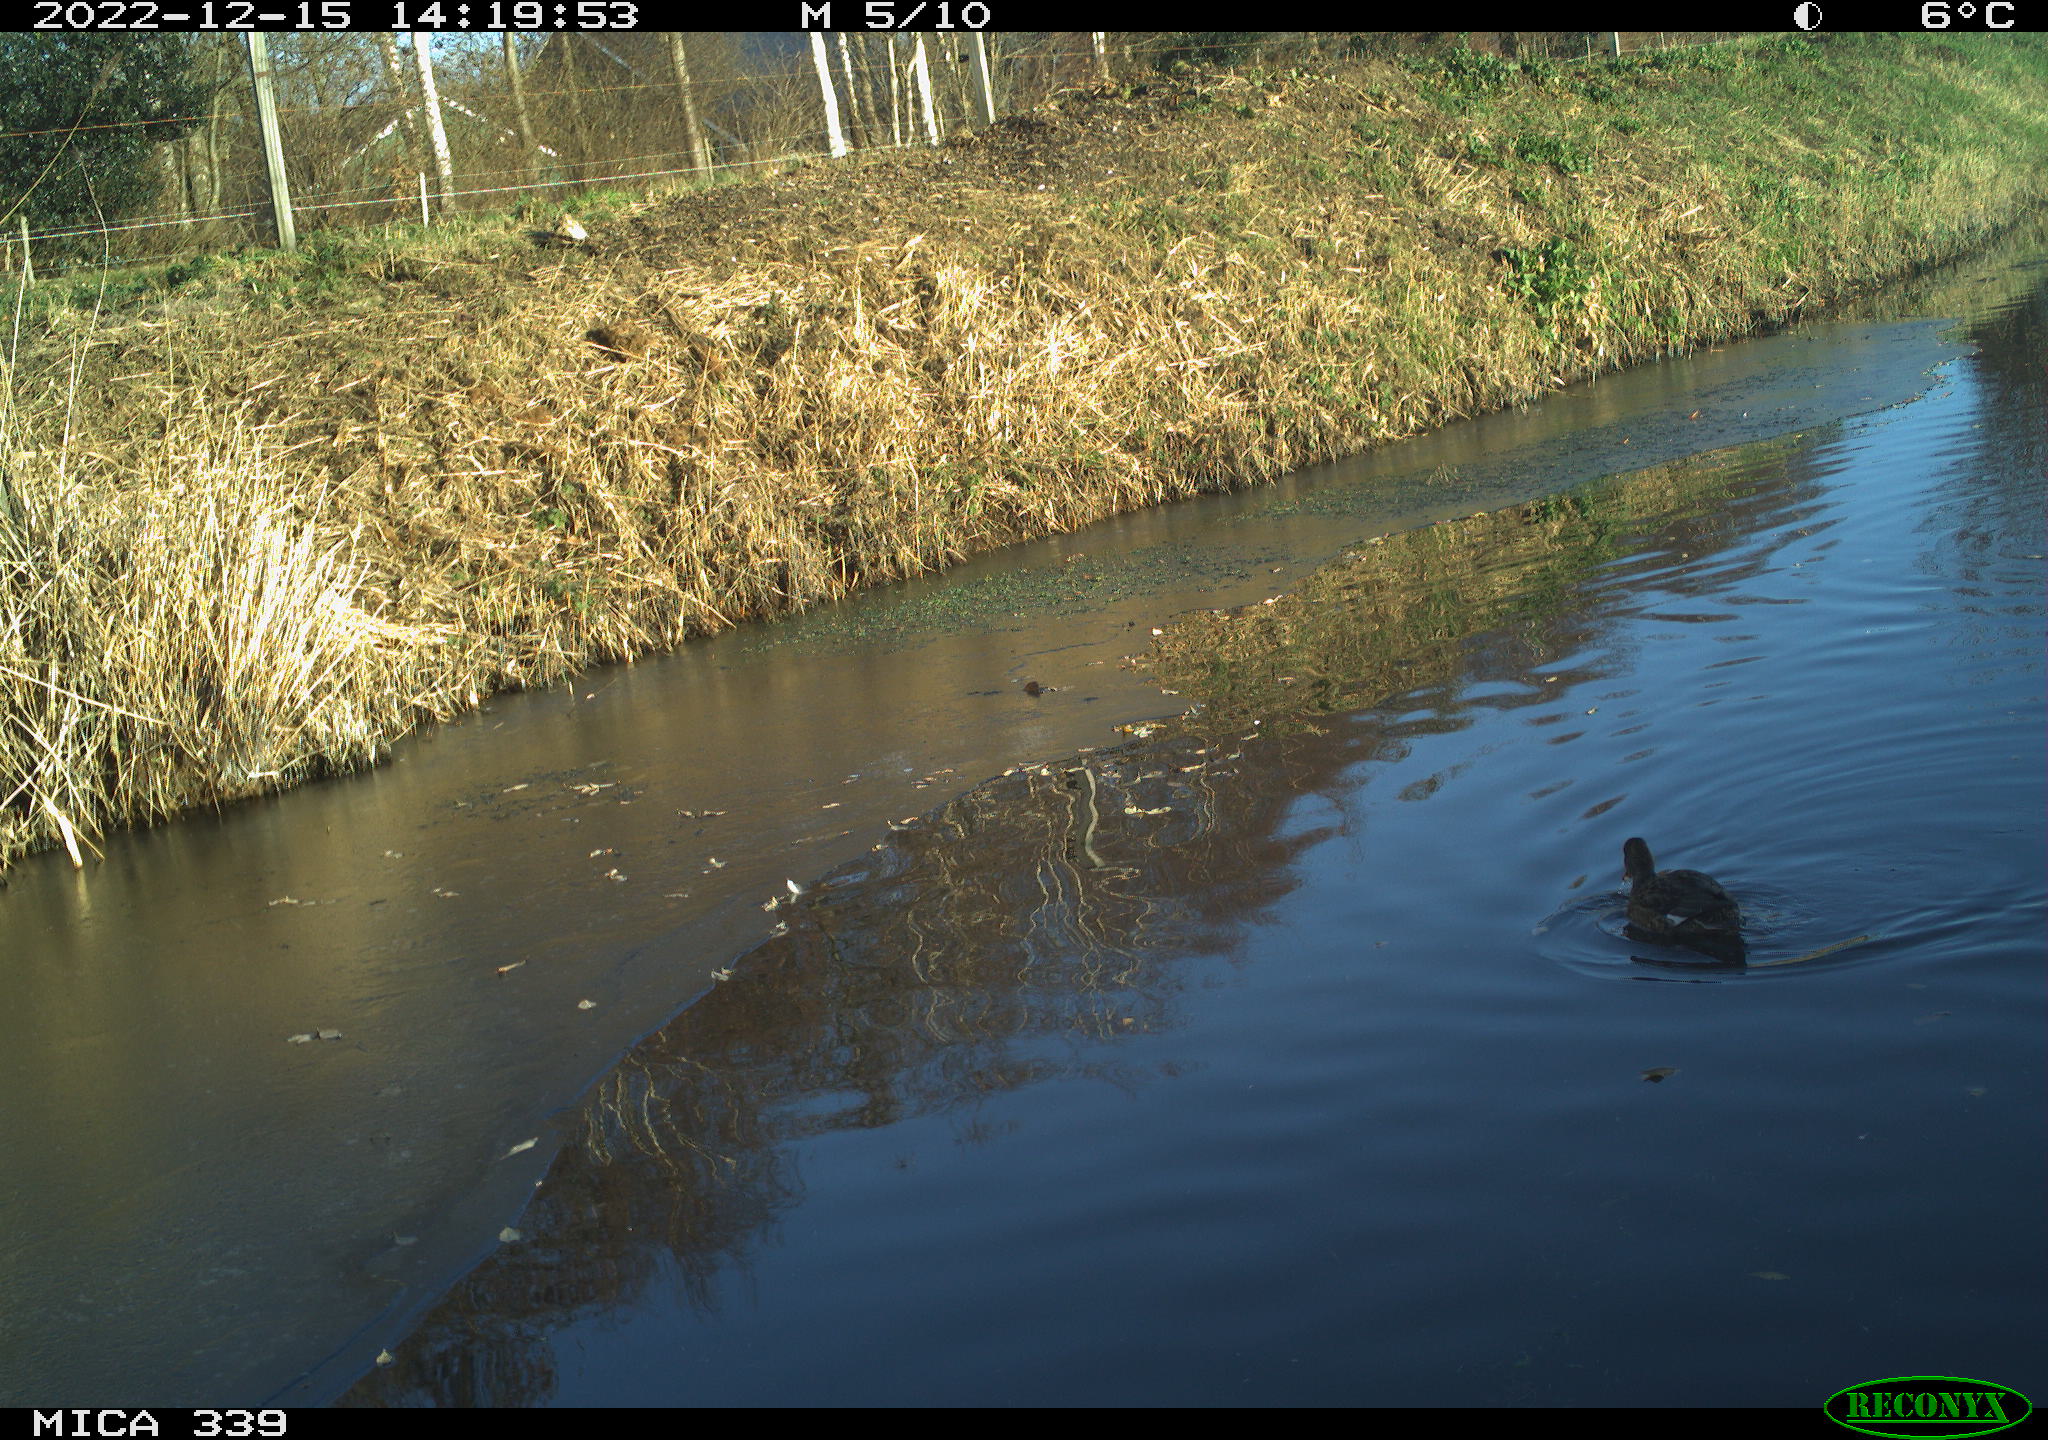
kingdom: Animalia
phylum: Chordata
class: Aves
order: Anseriformes
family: Anatidae
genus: Anas
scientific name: Anas
